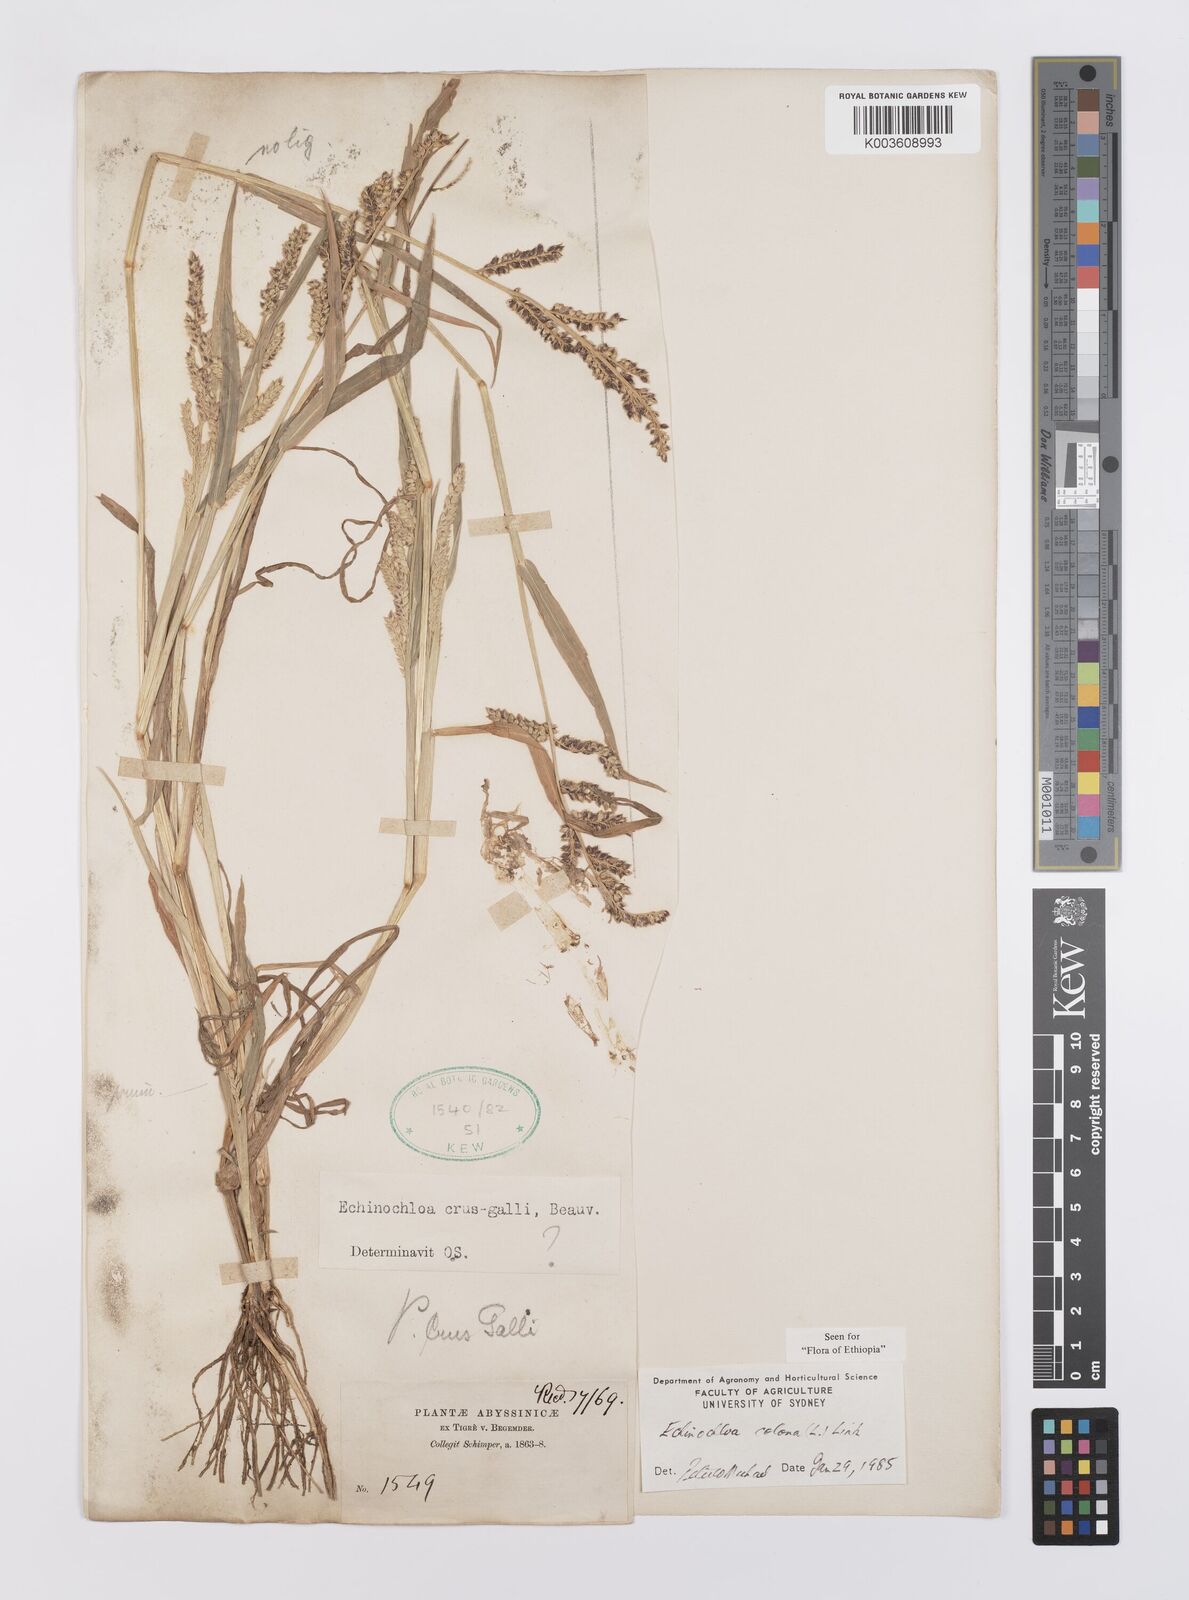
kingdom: Plantae
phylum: Tracheophyta
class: Liliopsida
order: Poales
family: Poaceae
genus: Echinochloa
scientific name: Echinochloa colonum
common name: Jungle rice
